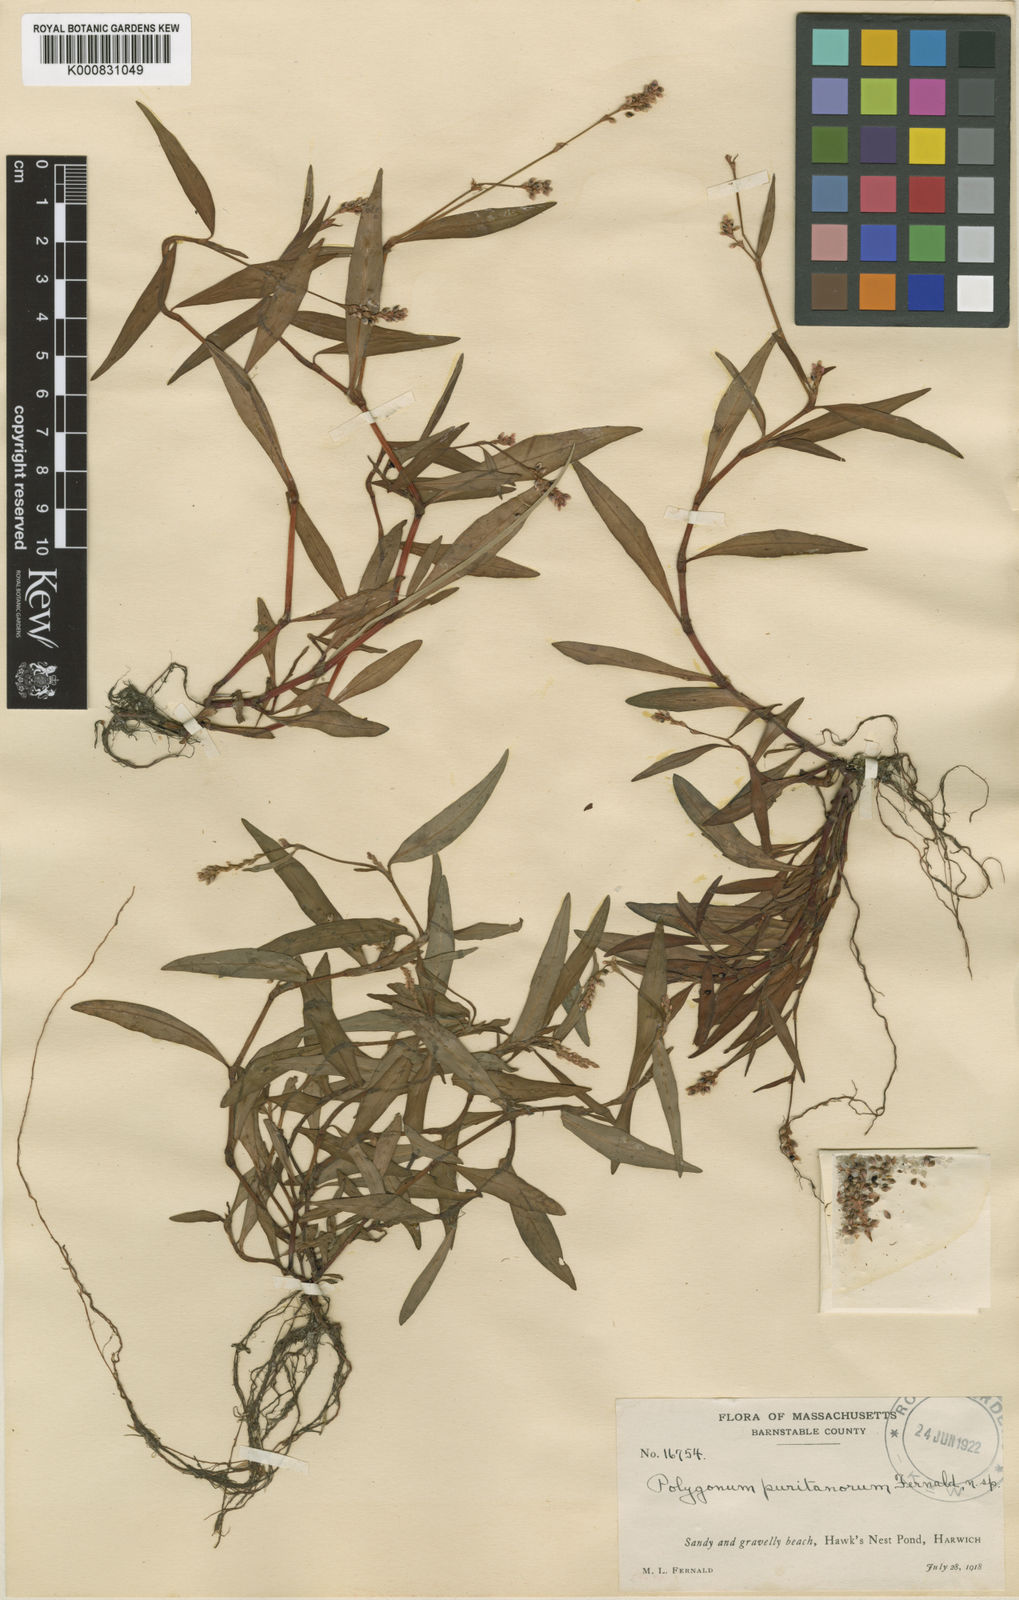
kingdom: Plantae
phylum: Tracheophyta
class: Magnoliopsida
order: Caryophyllales
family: Polygonaceae
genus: Persicaria
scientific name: Persicaria maculosa
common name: Redshank
